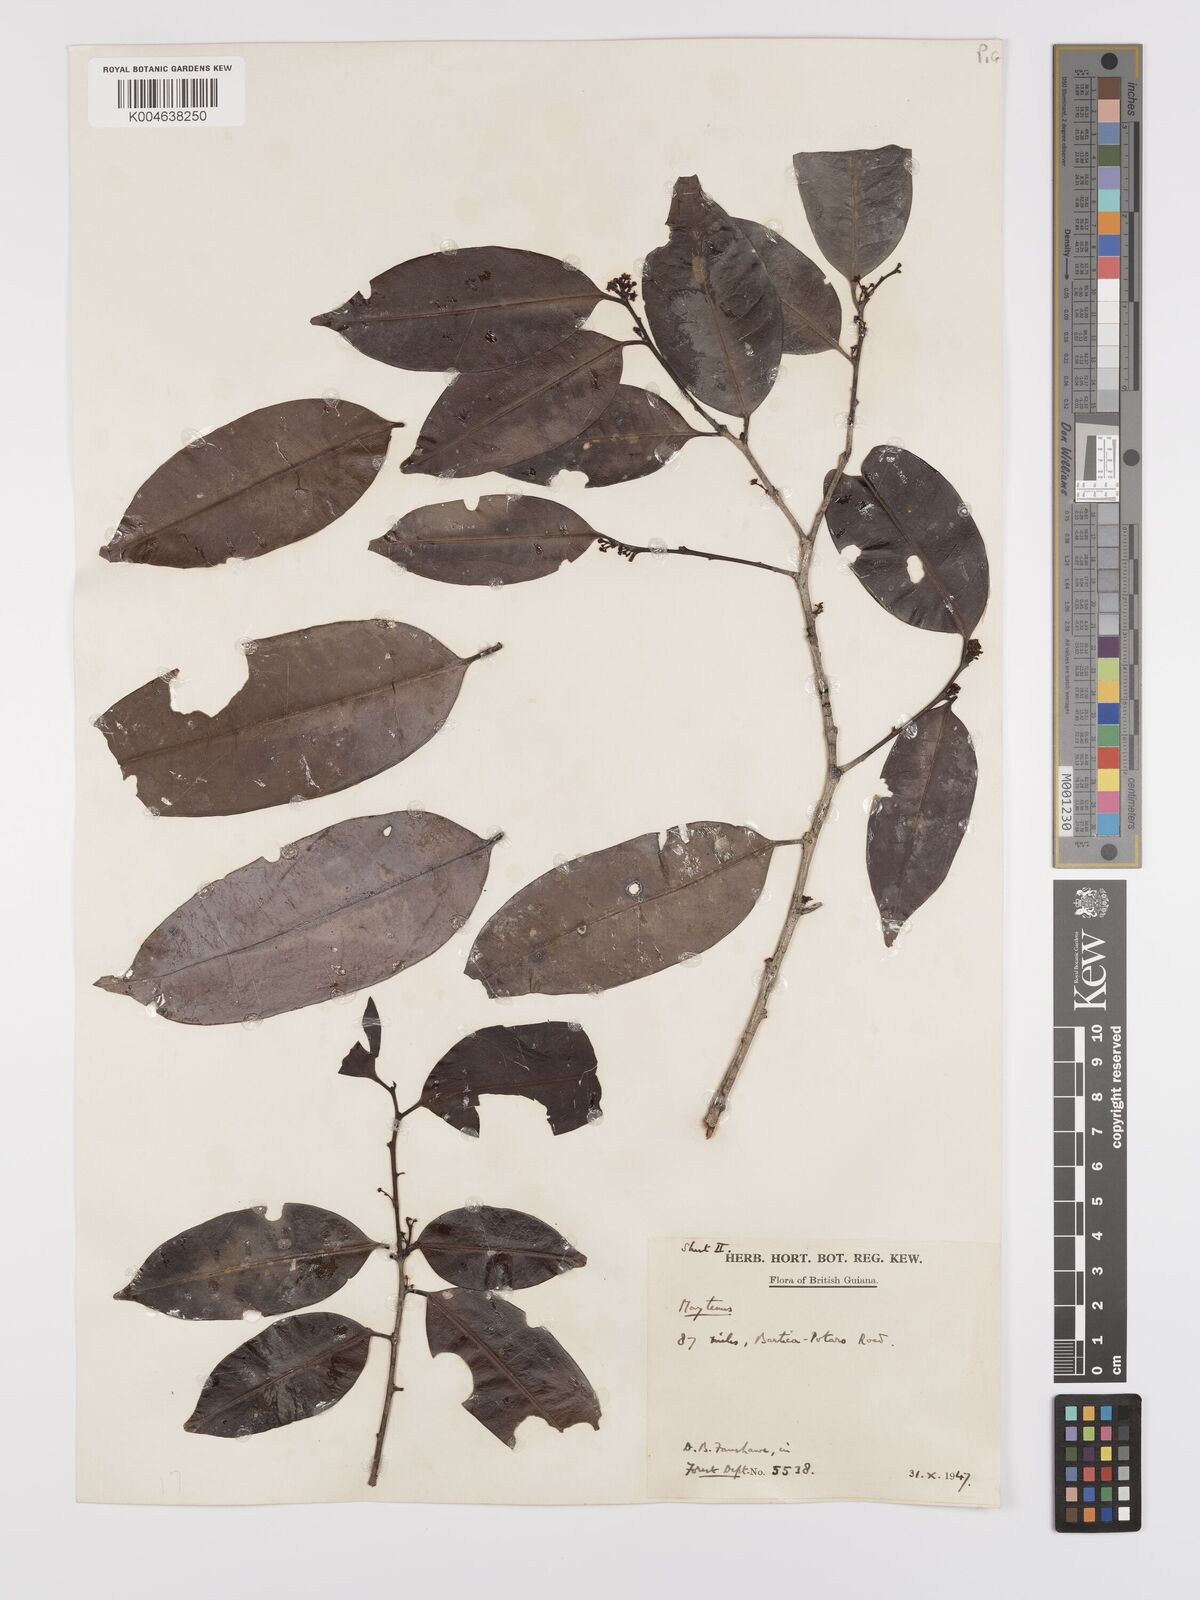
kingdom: Plantae
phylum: Tracheophyta
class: Magnoliopsida
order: Celastrales
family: Celastraceae
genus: Maytenus
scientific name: Maytenus
